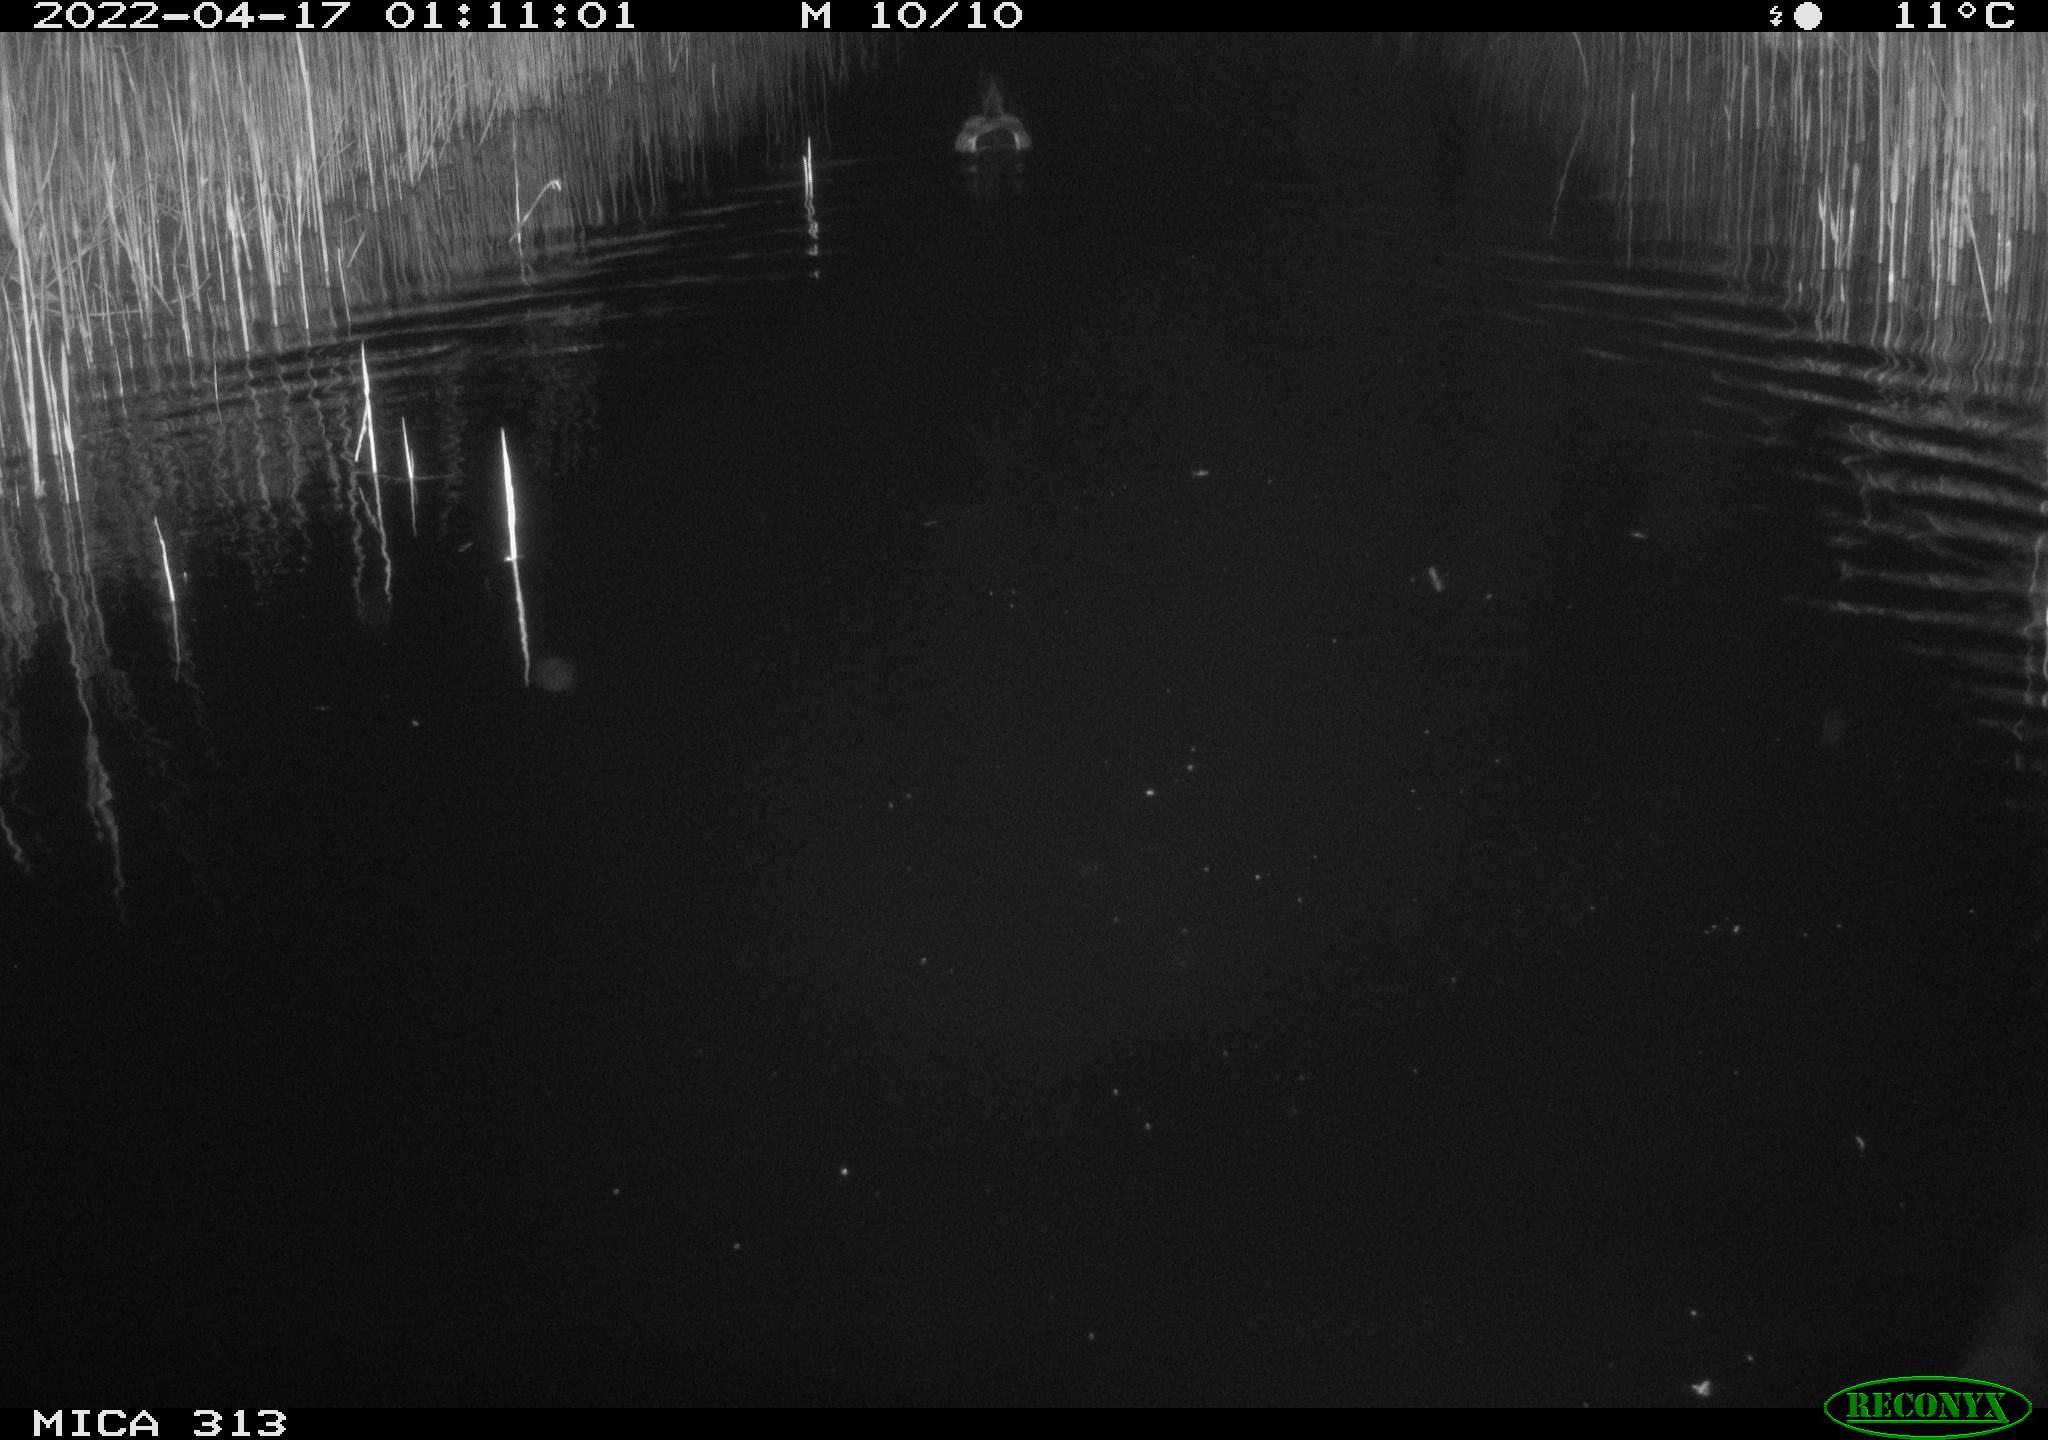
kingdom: Animalia
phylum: Chordata
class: Aves
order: Anseriformes
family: Anatidae
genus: Anas
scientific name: Anas platyrhynchos
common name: Mallard
